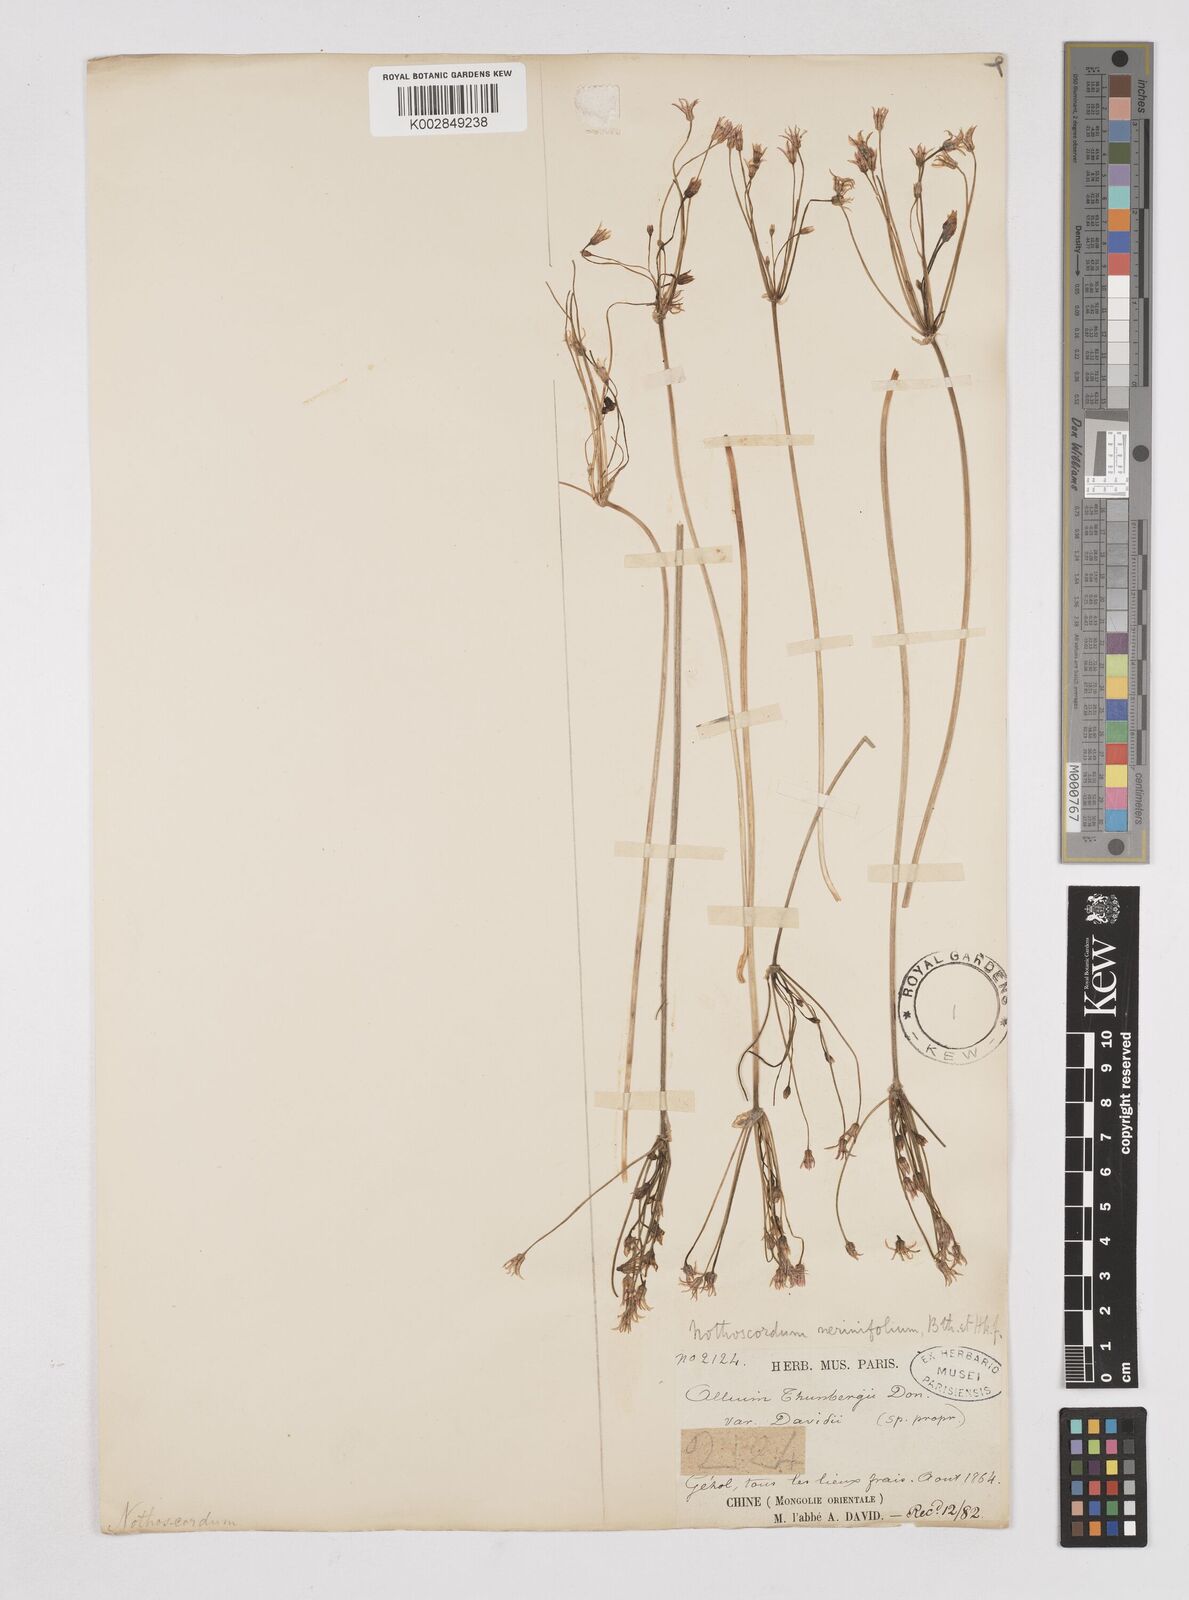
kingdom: Plantae
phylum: Tracheophyta
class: Liliopsida
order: Liliales
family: Liliaceae
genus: Agapanthus
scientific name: Agapanthus
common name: Agapanthus
